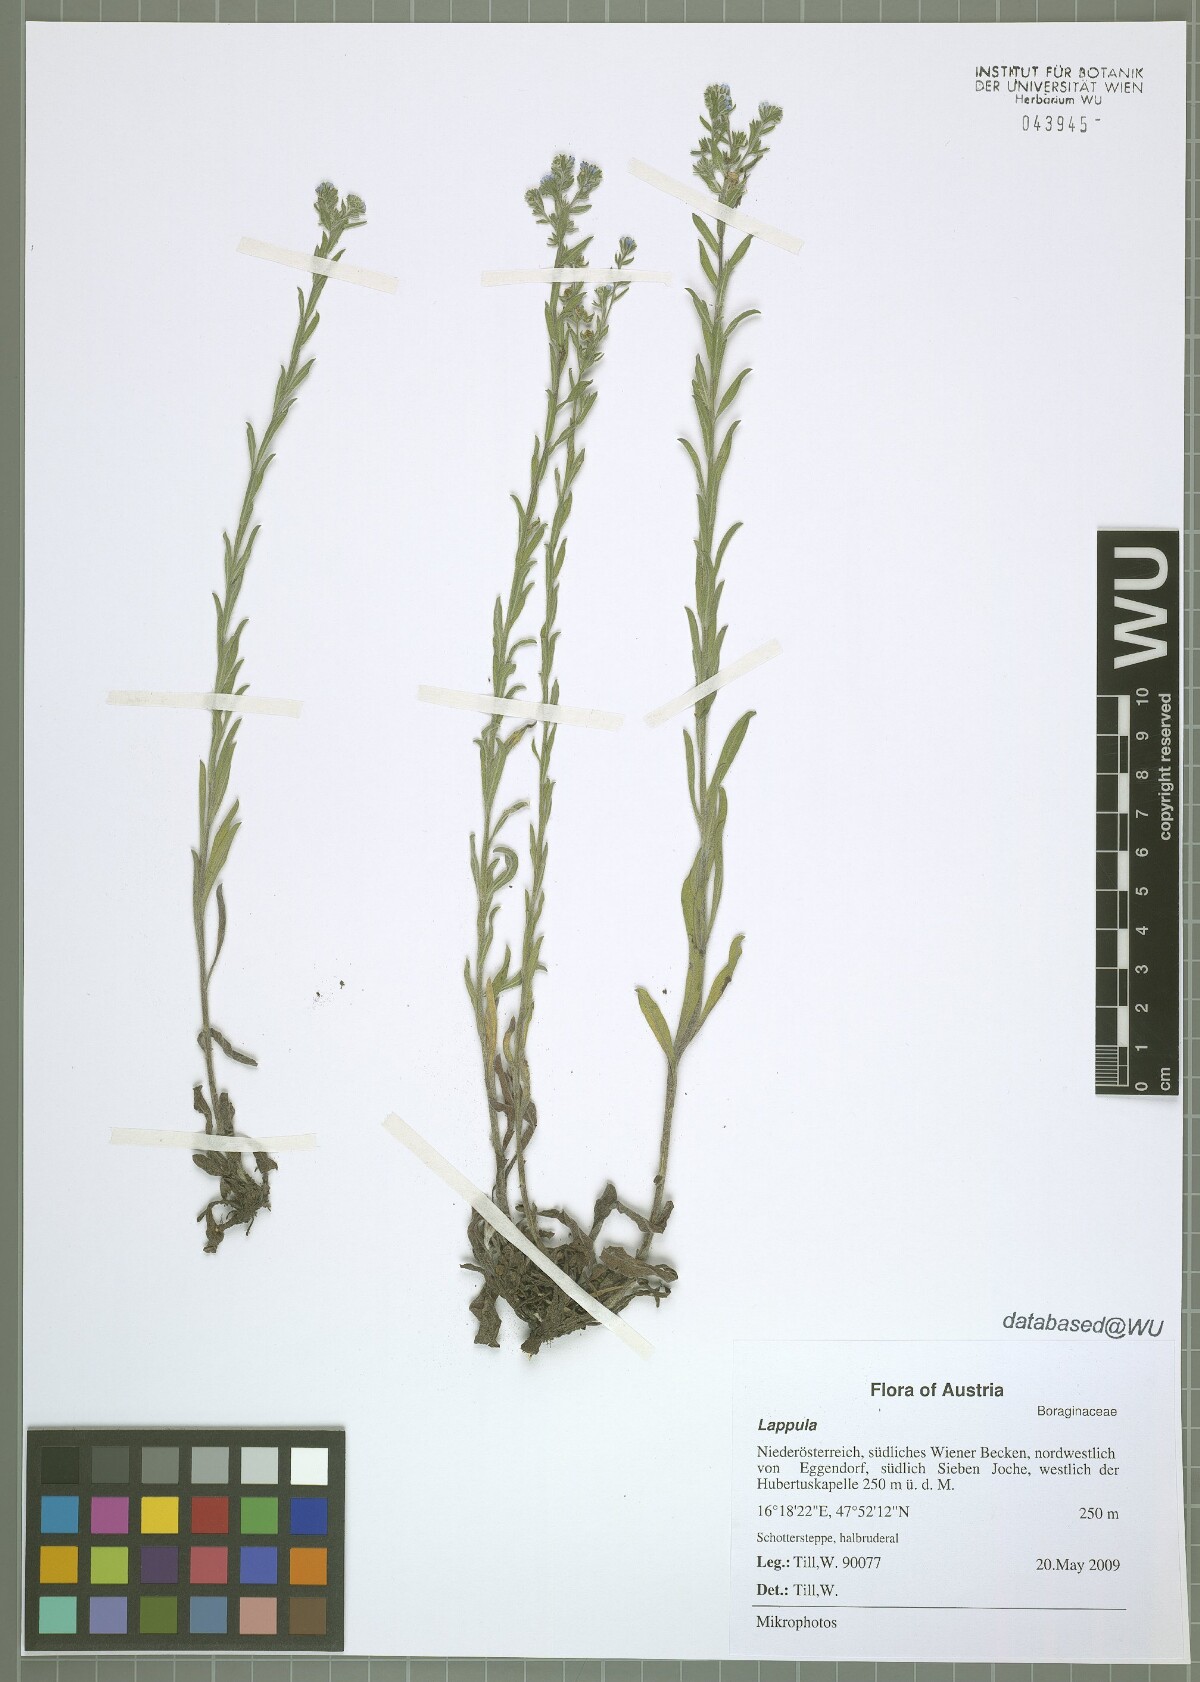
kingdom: Plantae
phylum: Tracheophyta
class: Magnoliopsida
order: Boraginales
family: Boraginaceae
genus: Lappula
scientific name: Lappula squarrosa
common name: European stickseed
